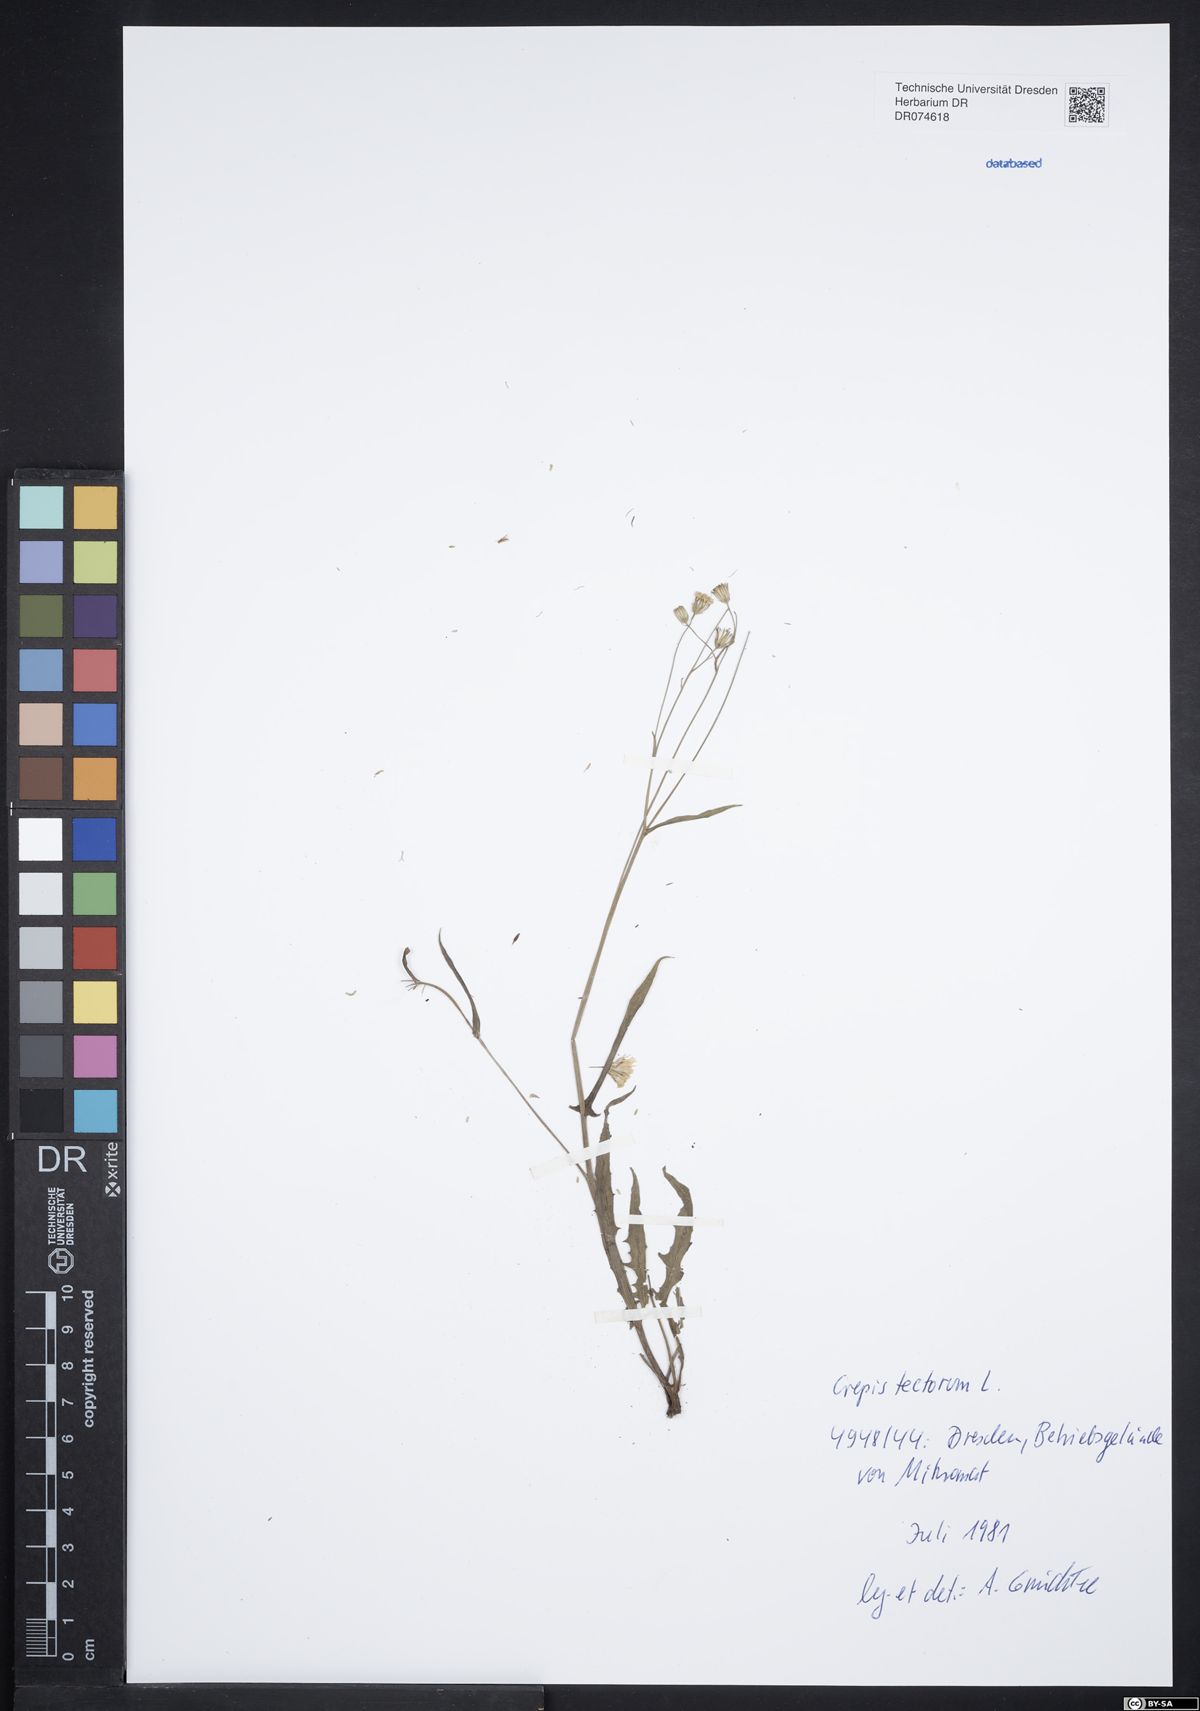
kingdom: Plantae
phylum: Tracheophyta
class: Magnoliopsida
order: Asterales
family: Asteraceae
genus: Crepis
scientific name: Crepis tectorum
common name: Narrow-leaved hawk's-beard
